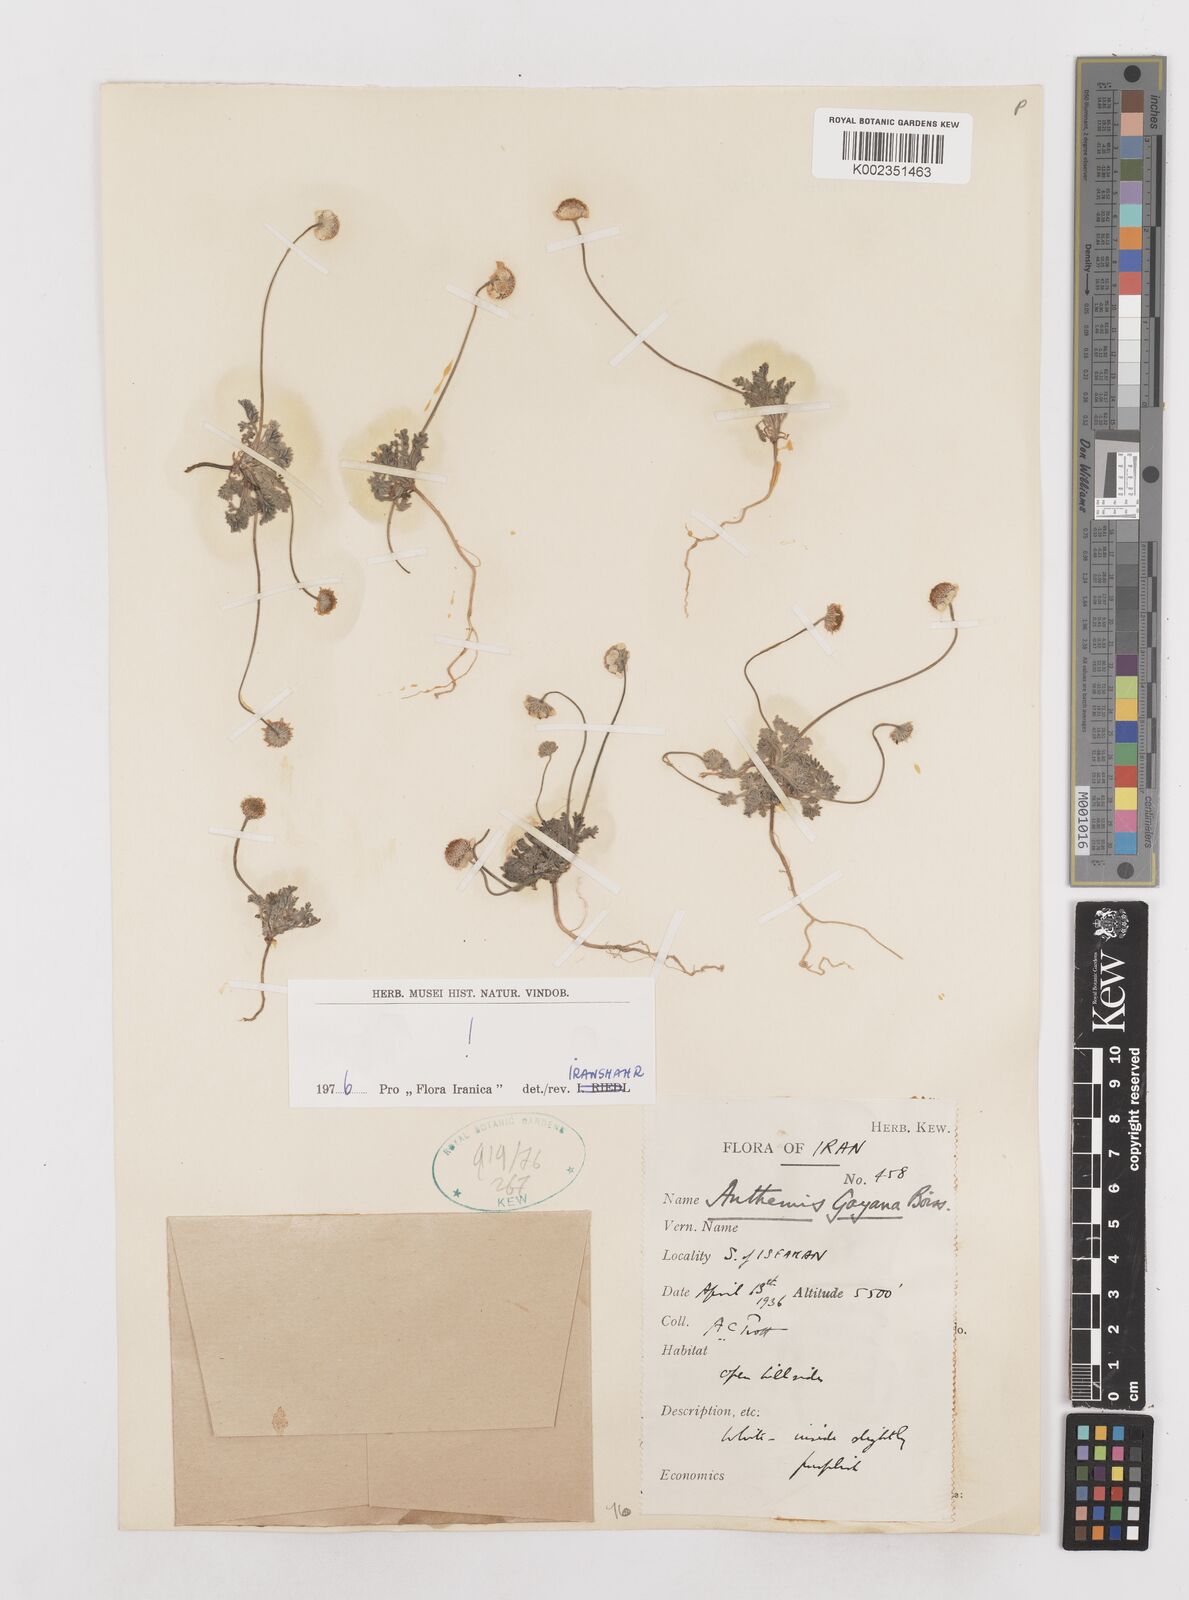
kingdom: Plantae
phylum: Tracheophyta
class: Magnoliopsida
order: Asterales
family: Asteraceae
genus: Anthemis
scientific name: Anthemis gayana
